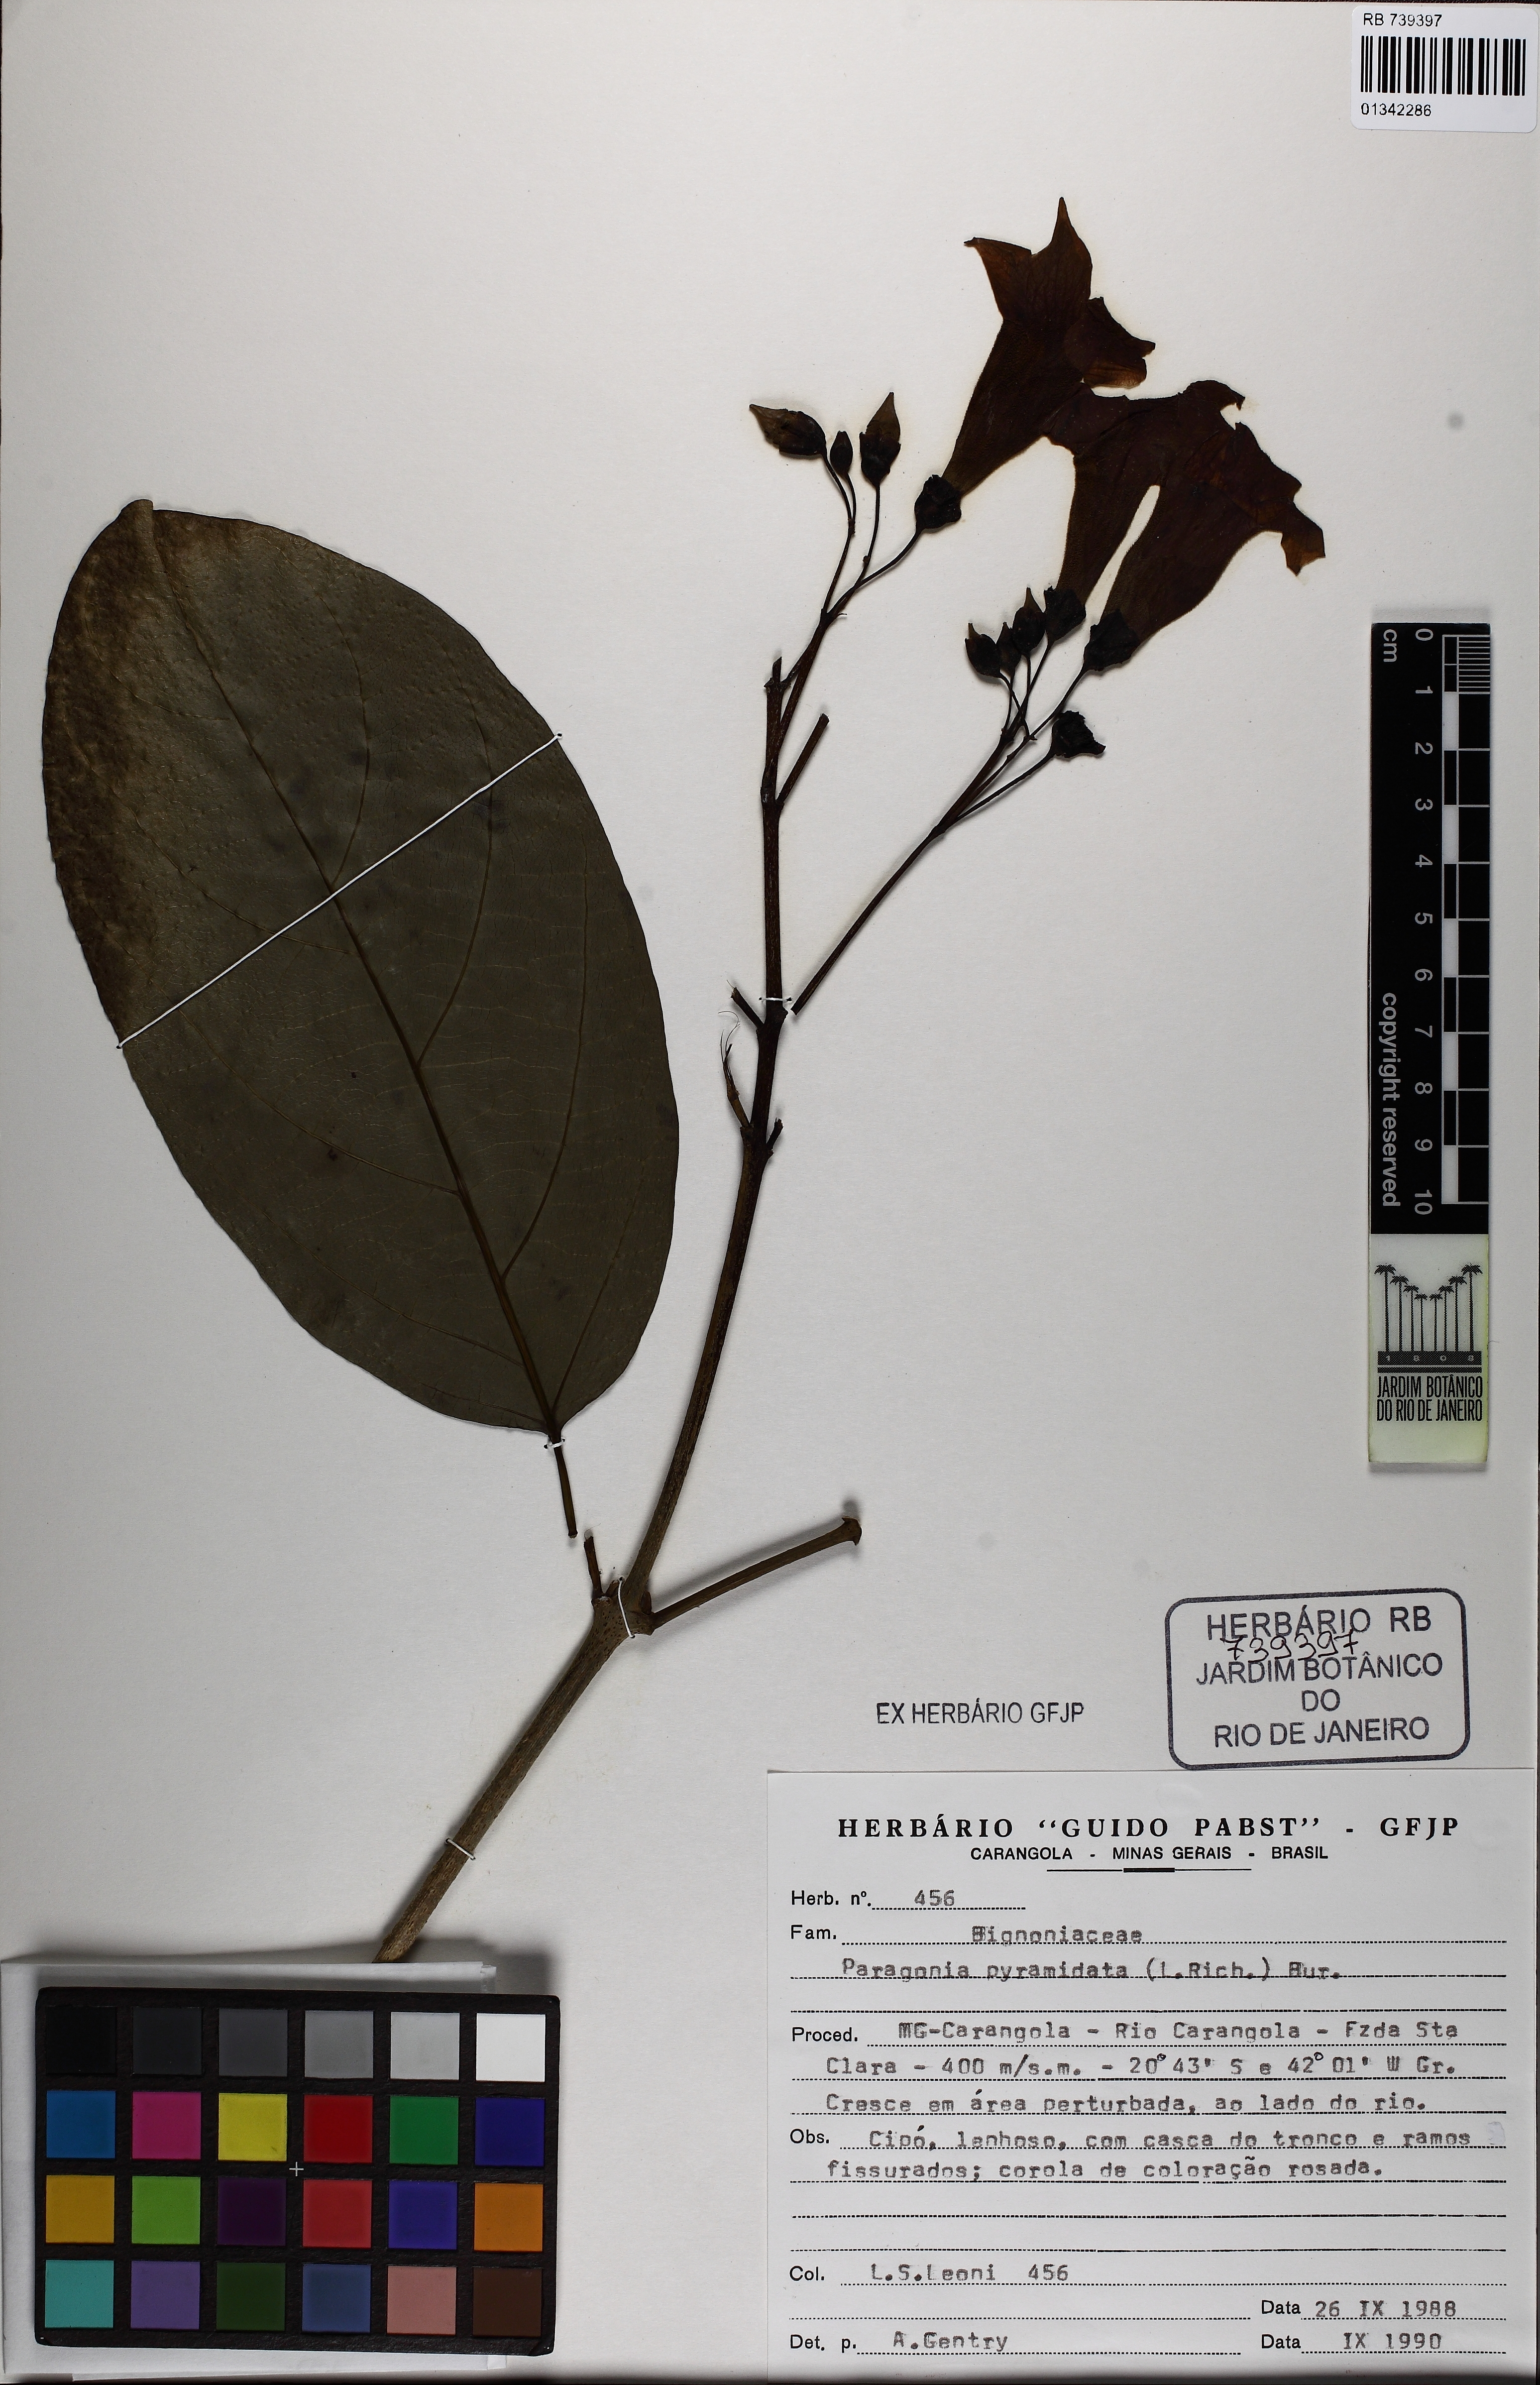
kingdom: Plantae
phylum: Tracheophyta
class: Magnoliopsida
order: Lamiales
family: Bignoniaceae
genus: Tanaecium
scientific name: Tanaecium pyramidatum
